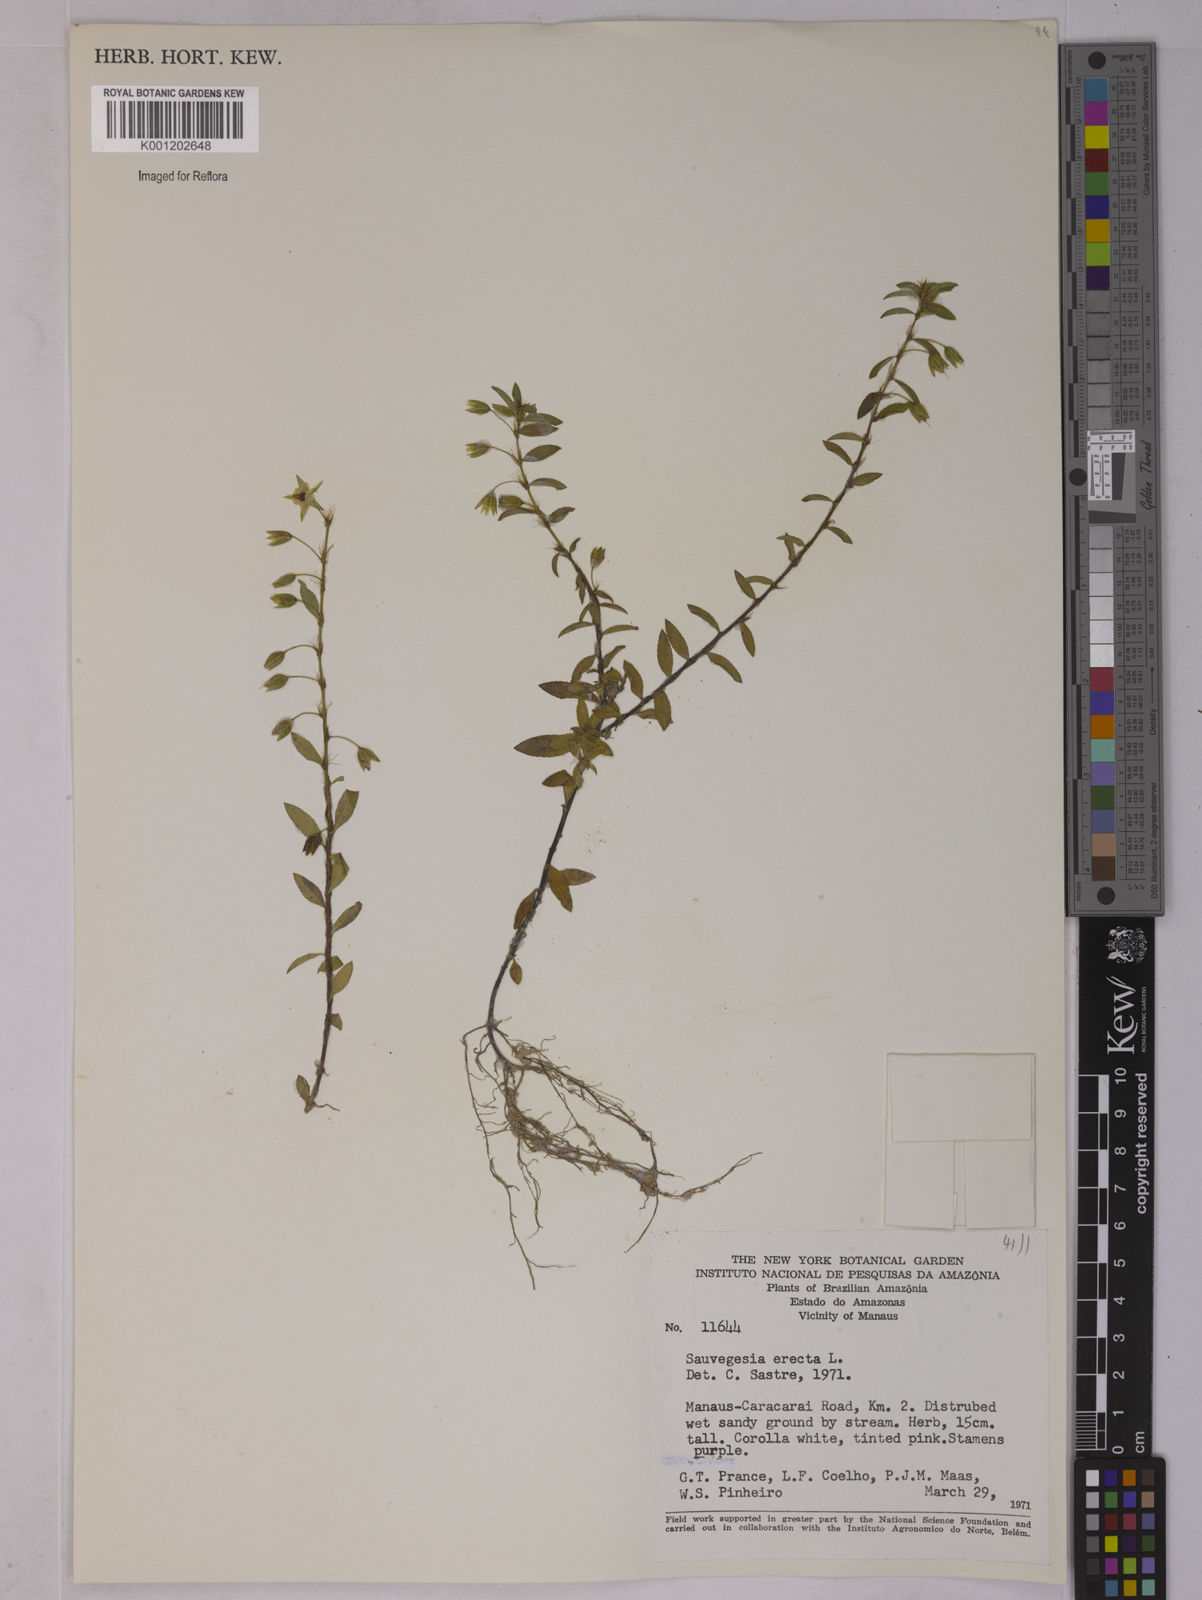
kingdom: Plantae
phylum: Tracheophyta
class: Magnoliopsida
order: Malpighiales
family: Ochnaceae
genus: Sauvagesia
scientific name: Sauvagesia erecta
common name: Creole tea
